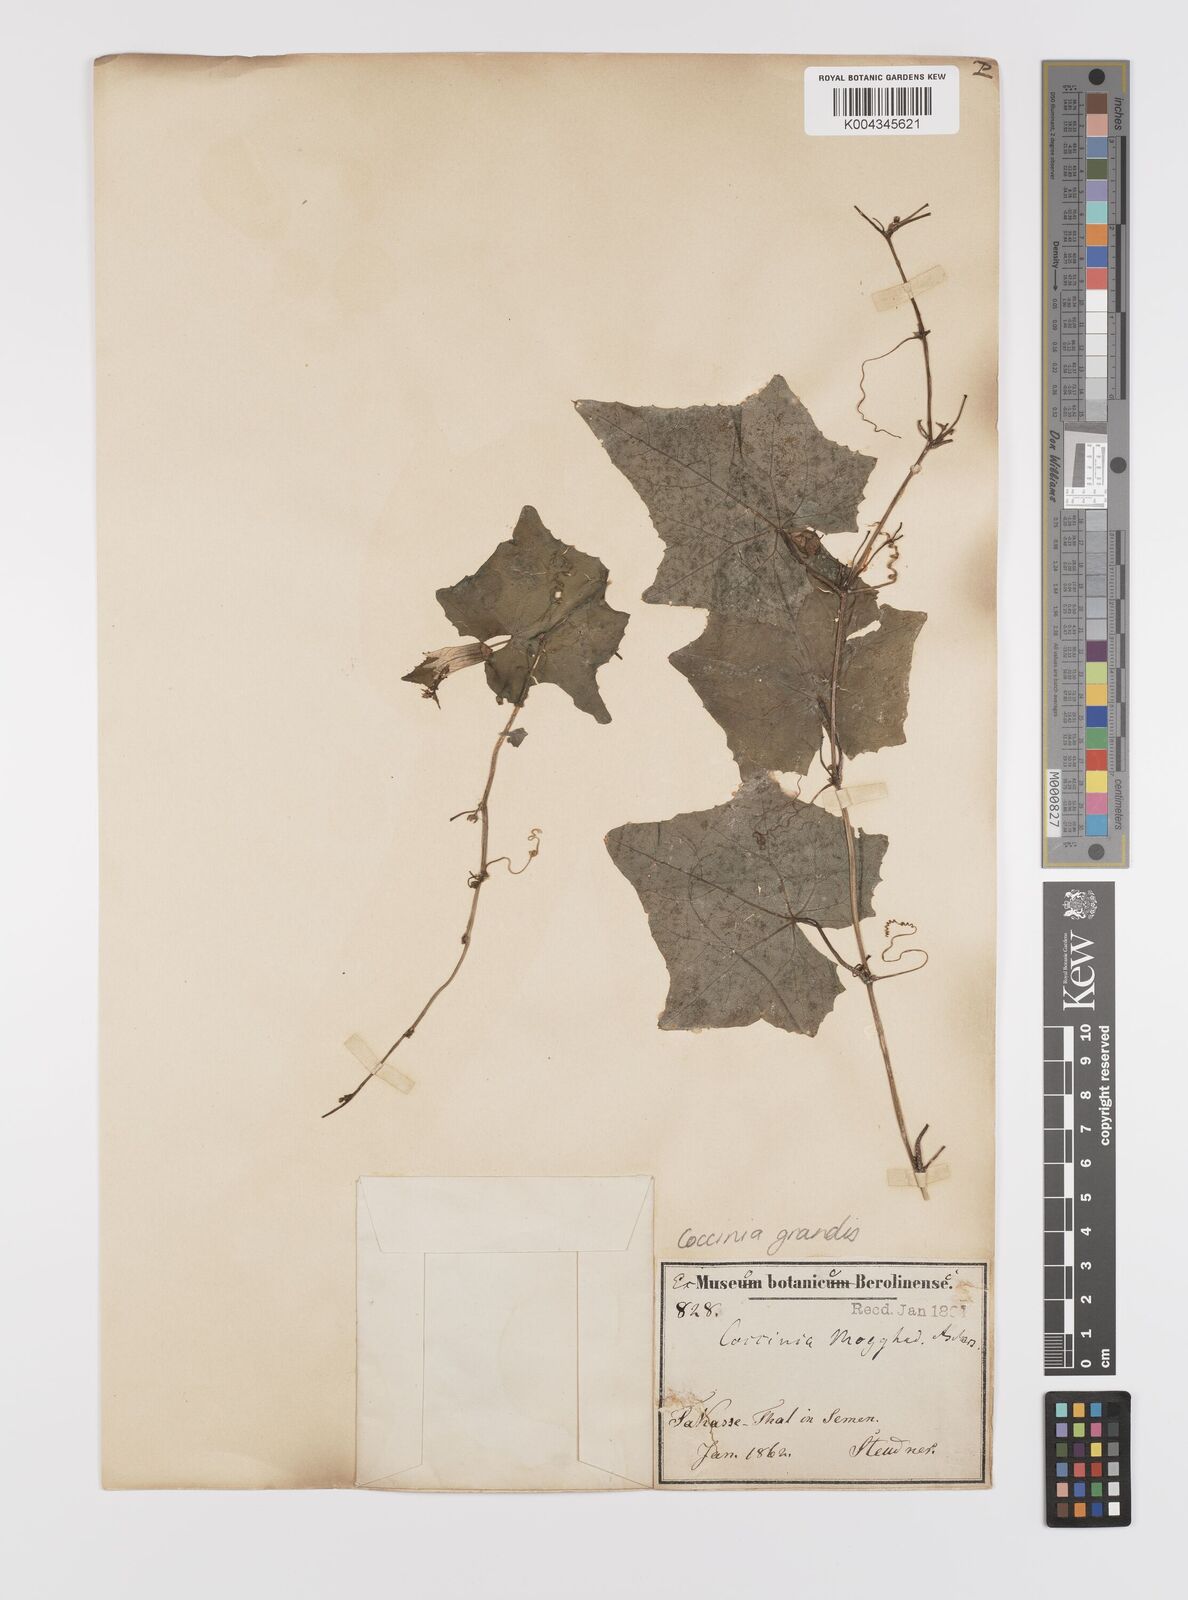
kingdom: Plantae
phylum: Tracheophyta
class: Magnoliopsida
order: Cucurbitales
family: Cucurbitaceae
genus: Coccinia
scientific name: Coccinia grandis
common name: Ivy gourd
